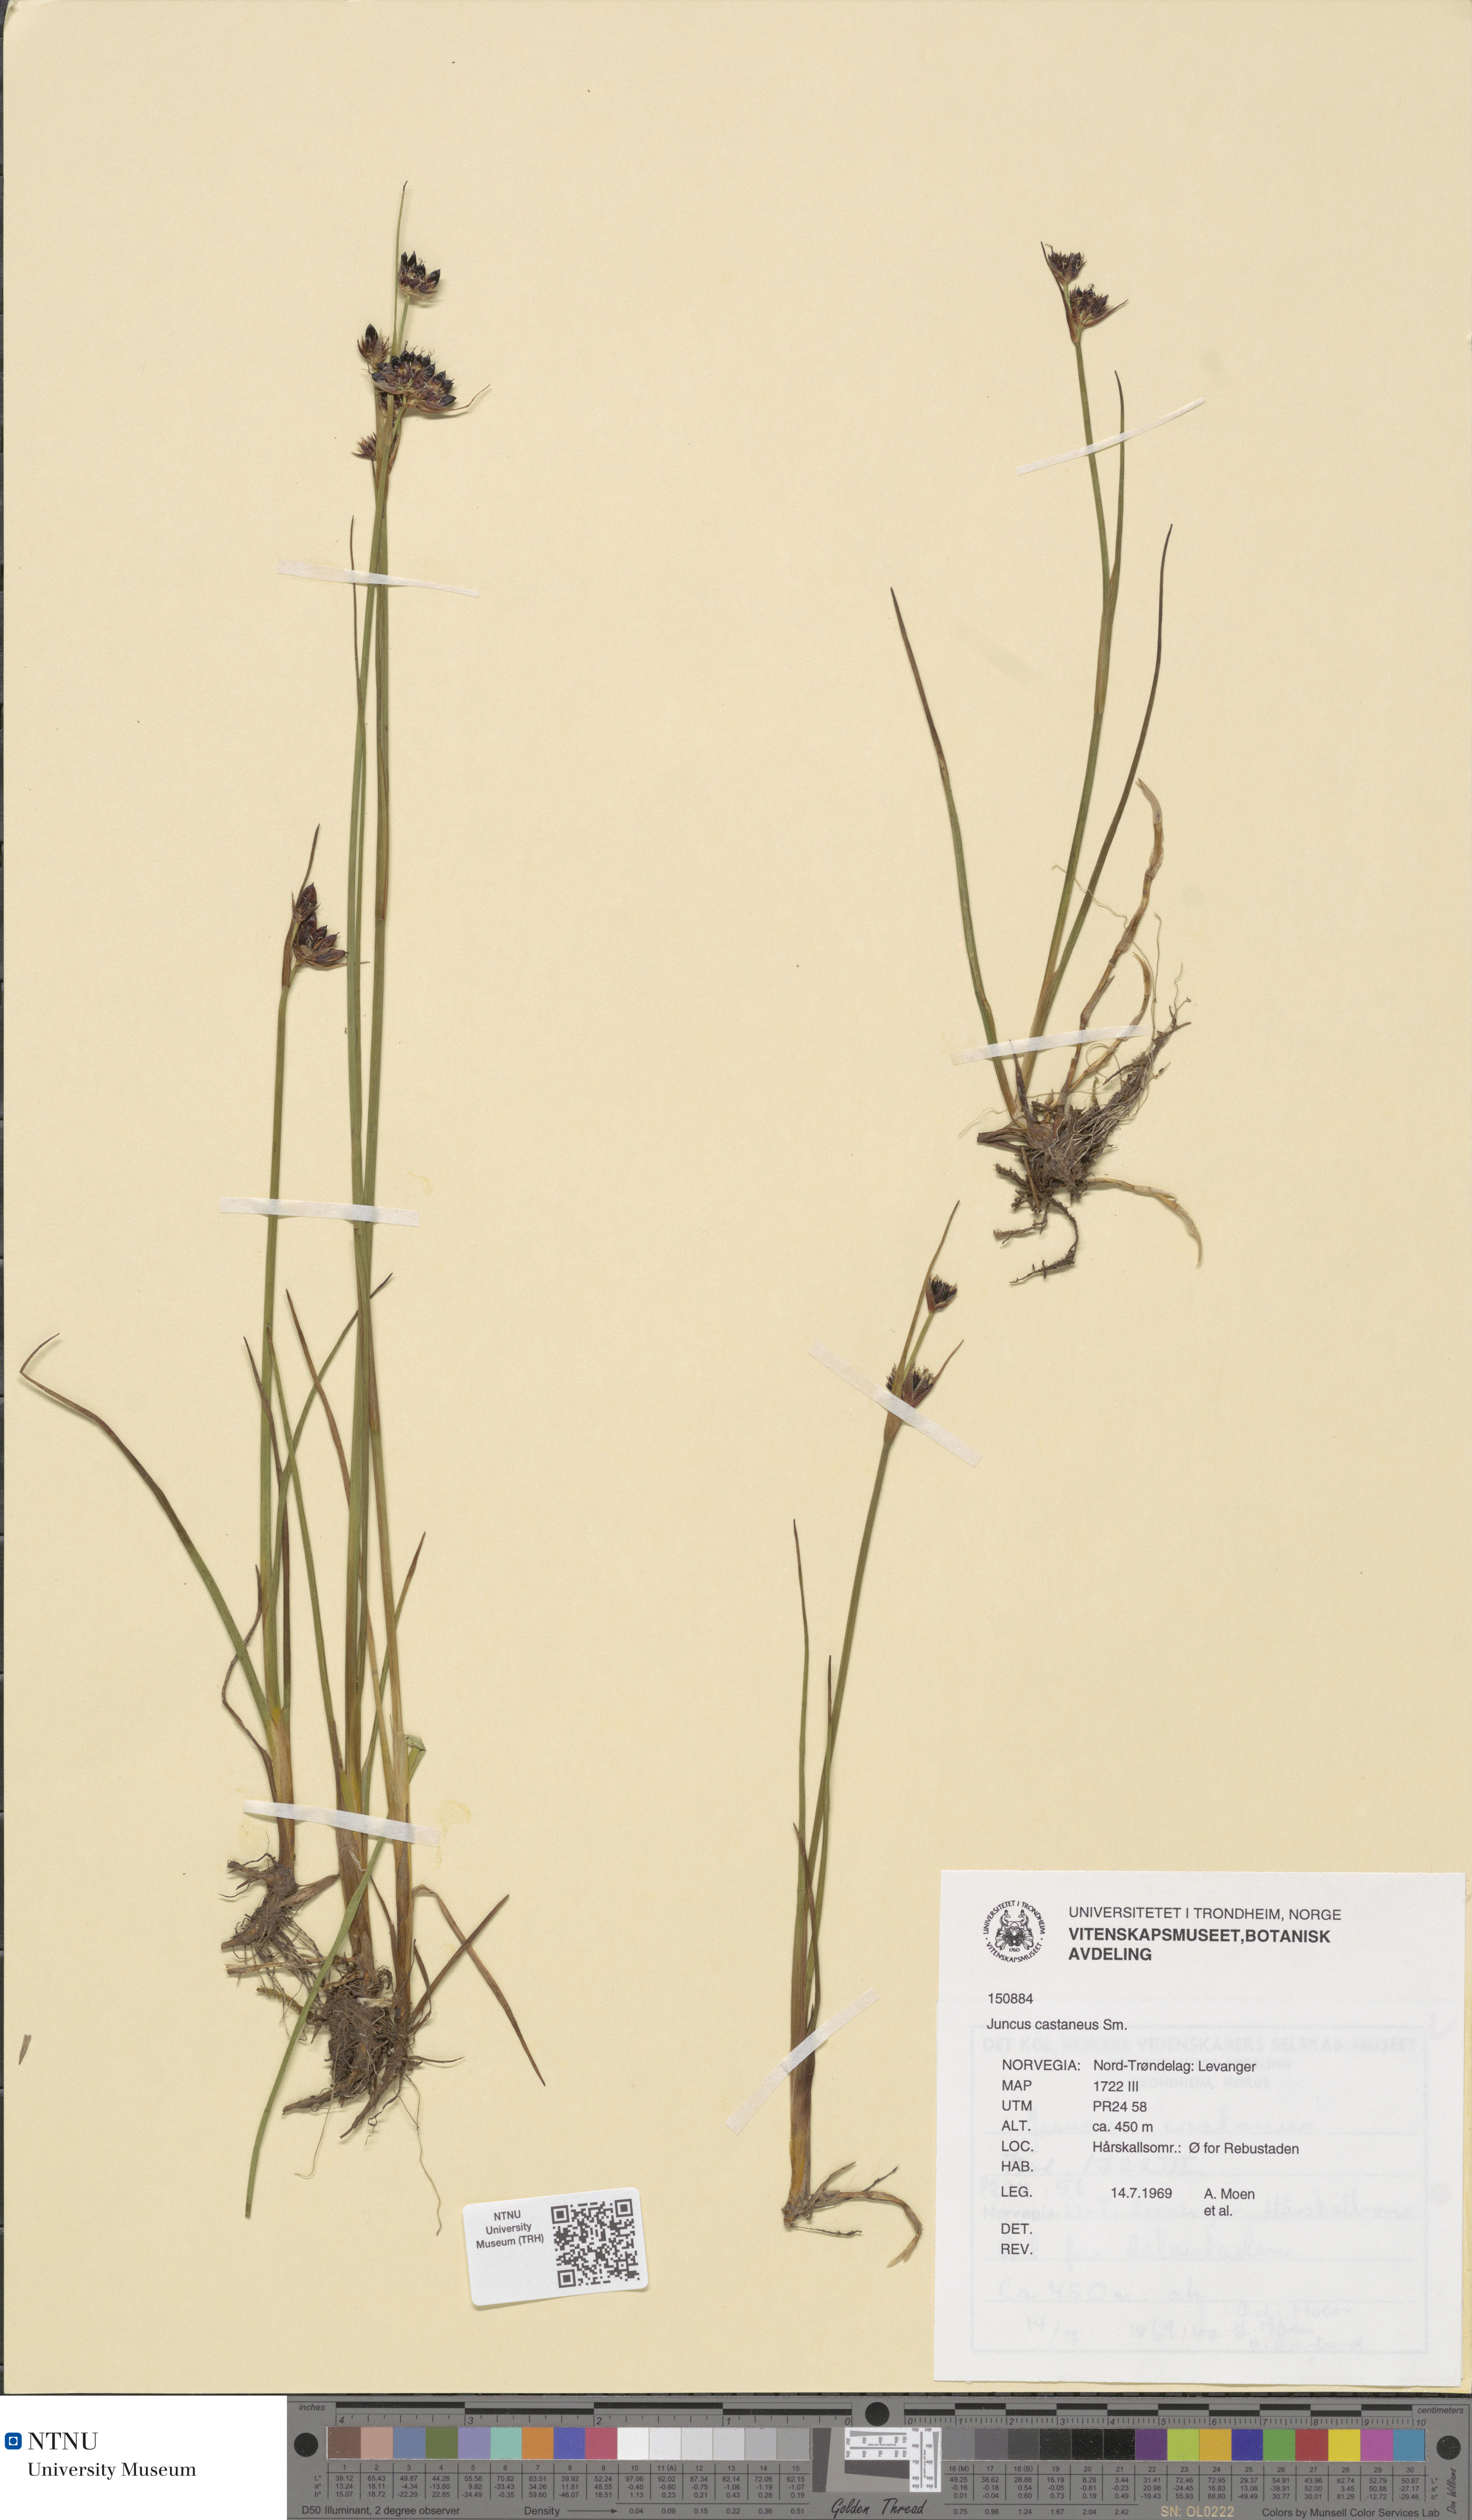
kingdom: Plantae
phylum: Tracheophyta
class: Liliopsida
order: Poales
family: Juncaceae
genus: Juncus
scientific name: Juncus castaneus
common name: Chestnut rush
